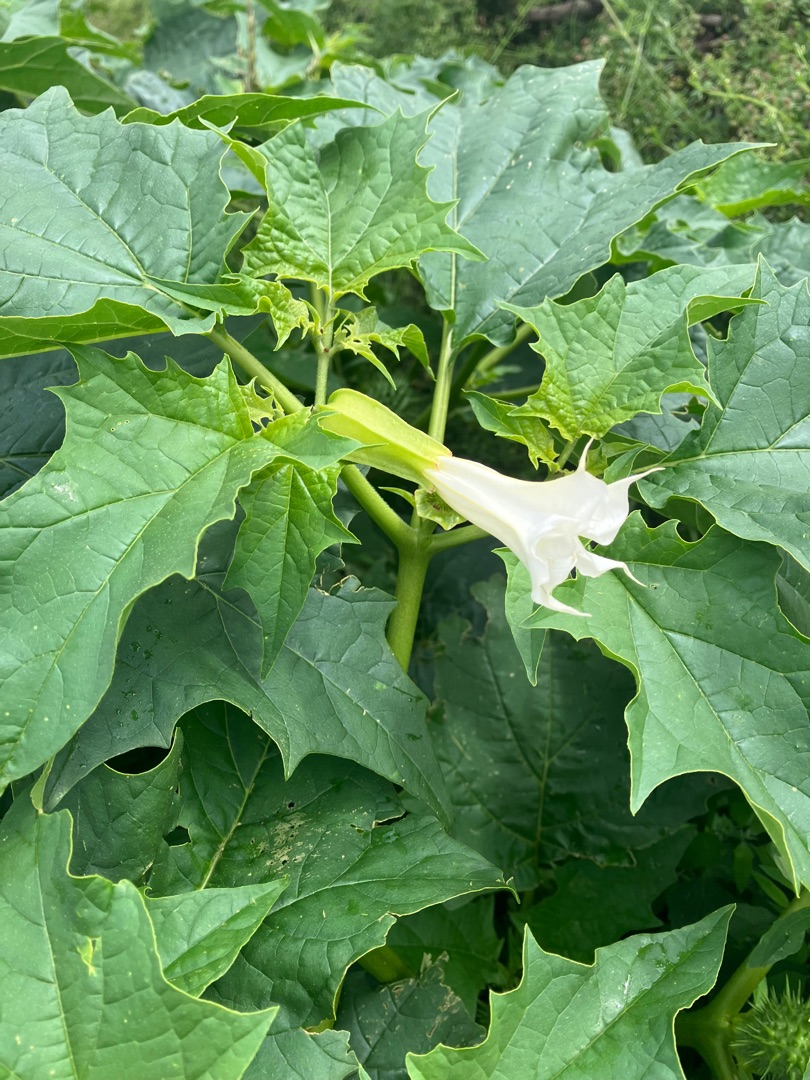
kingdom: Plantae
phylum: Tracheophyta
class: Magnoliopsida
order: Solanales
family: Solanaceae
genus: Datura
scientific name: Datura stramonium
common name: Pigæble
